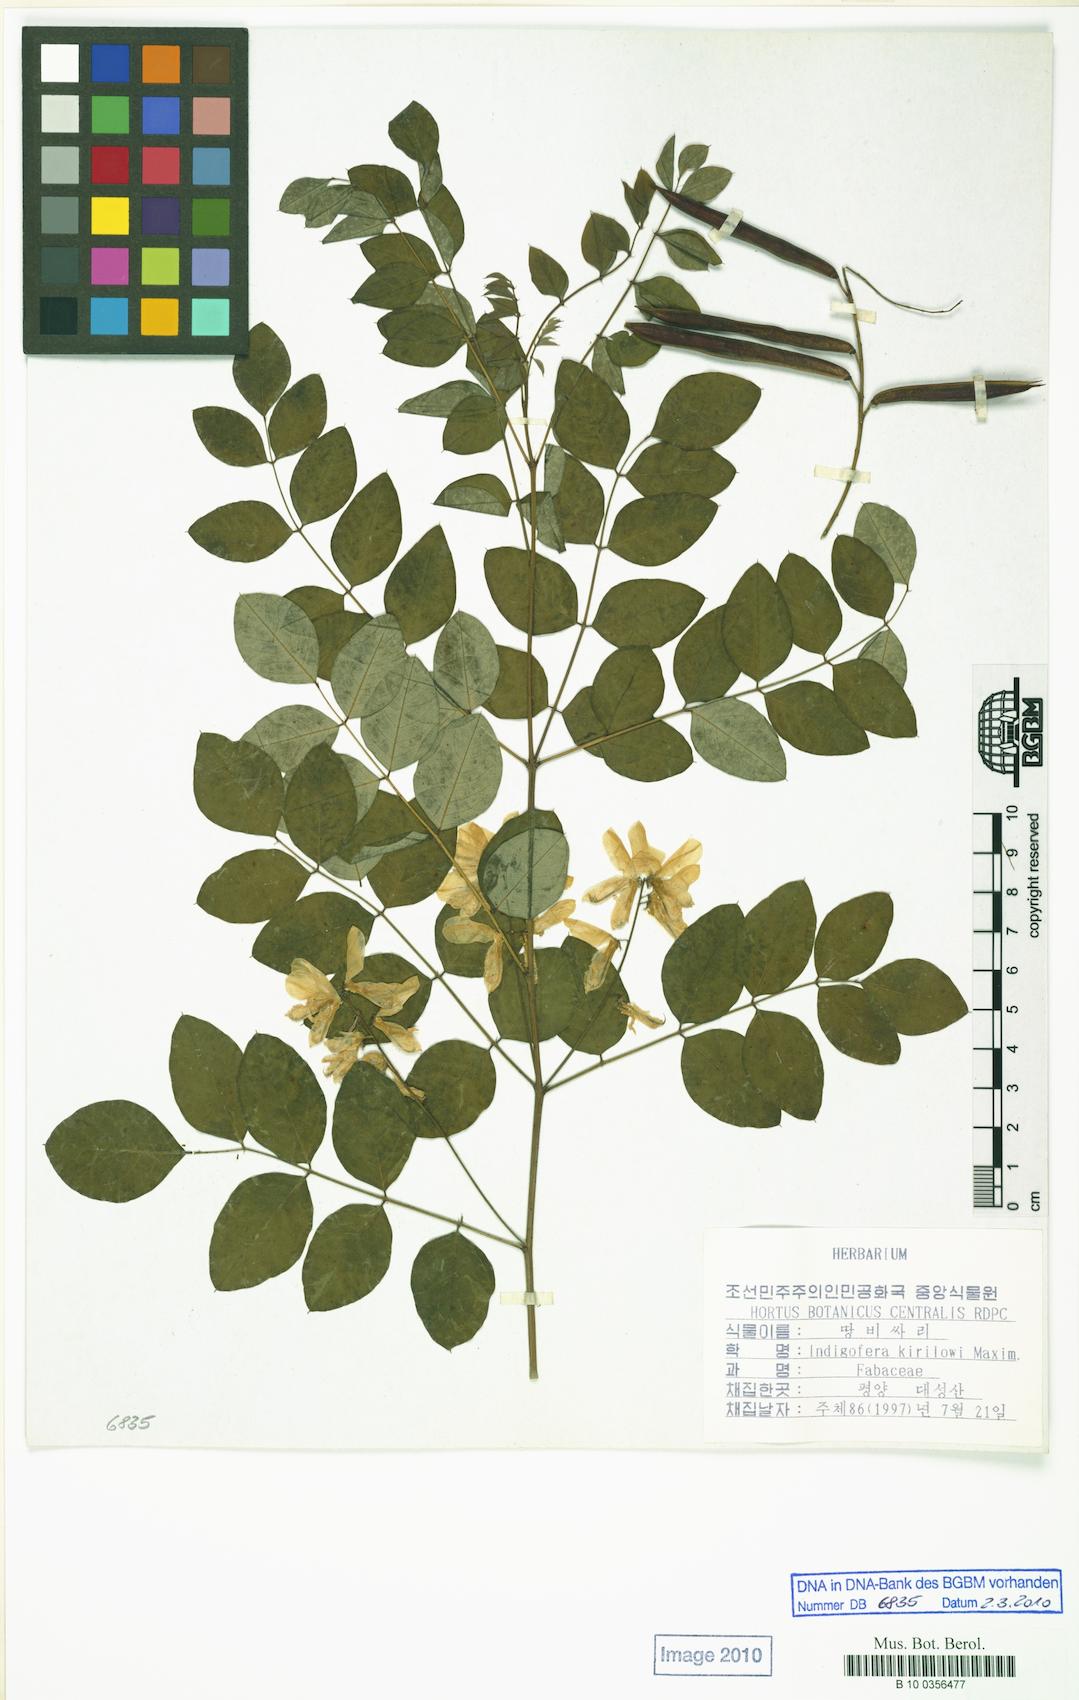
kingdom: Plantae
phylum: Tracheophyta
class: Magnoliopsida
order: Fabales
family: Fabaceae
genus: Indigofera
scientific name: Indigofera kirilowii
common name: Kirilow's indigo
